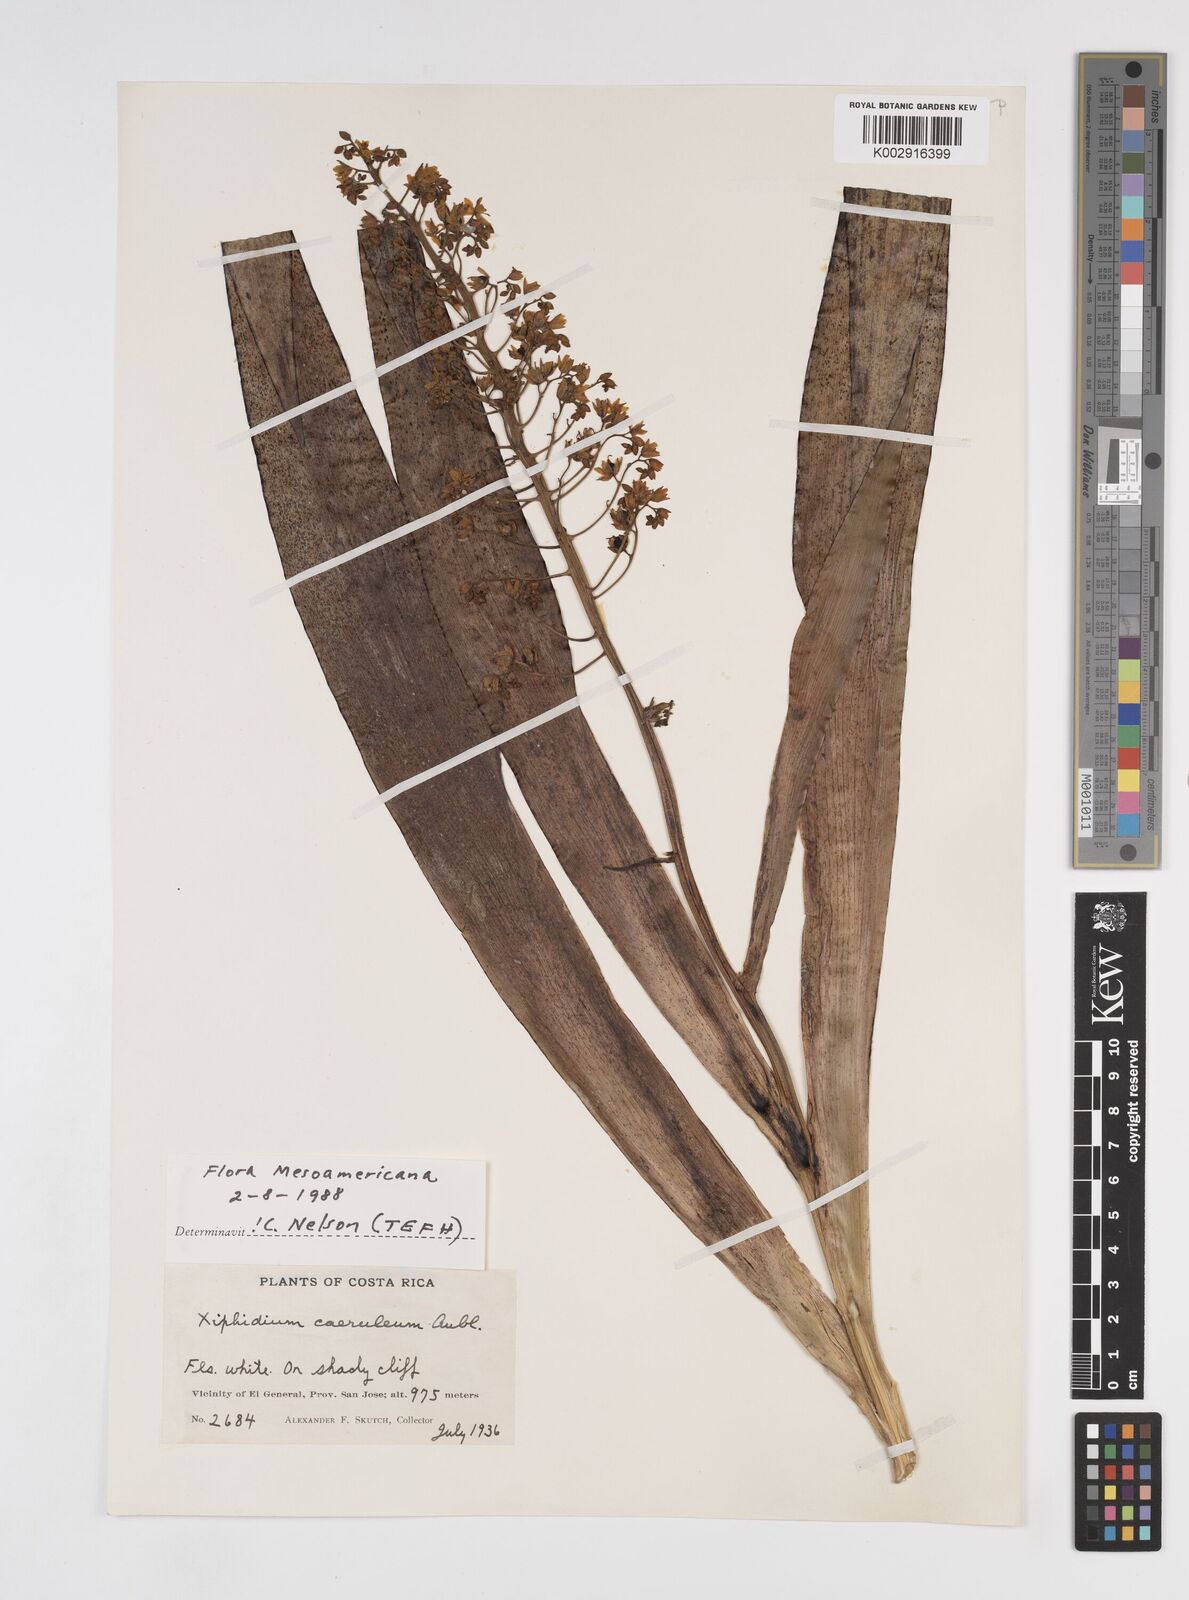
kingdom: Plantae
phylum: Tracheophyta
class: Liliopsida
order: Commelinales
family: Haemodoraceae
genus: Xiphidium
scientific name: Xiphidium caeruleum
